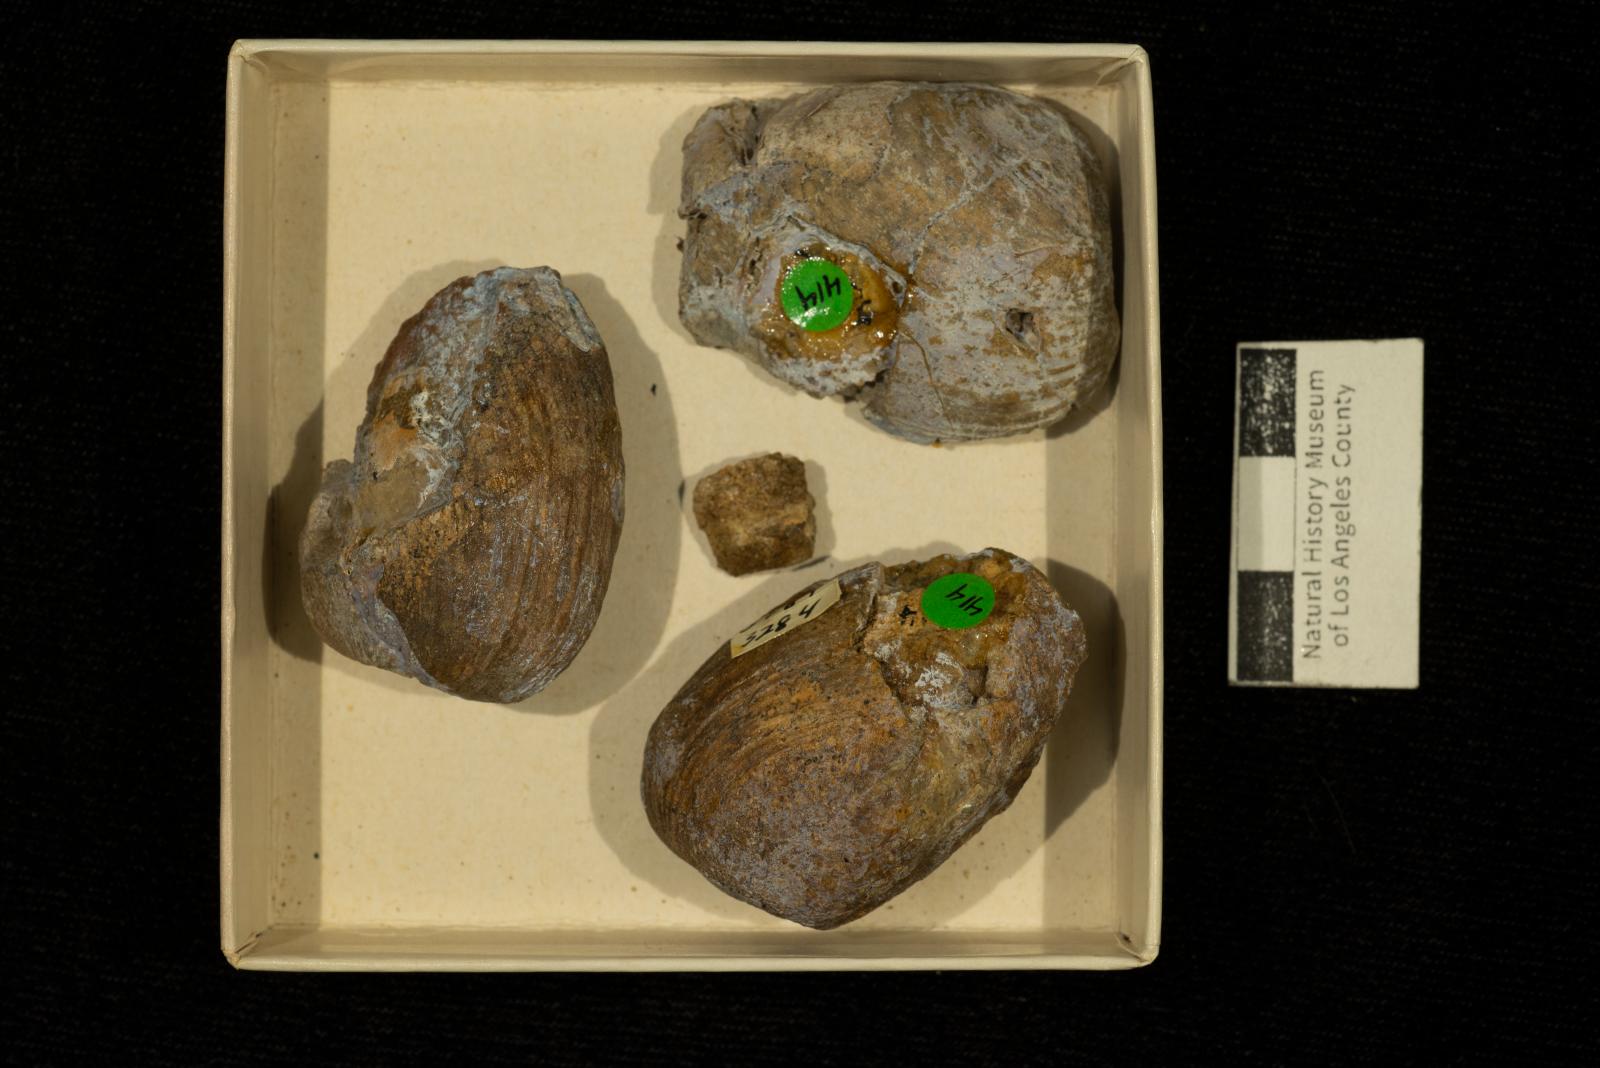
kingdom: Animalia
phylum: Mollusca
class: Bivalvia
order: Carditida
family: Crassatellidae
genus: Crassatella
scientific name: Crassatella lomana
